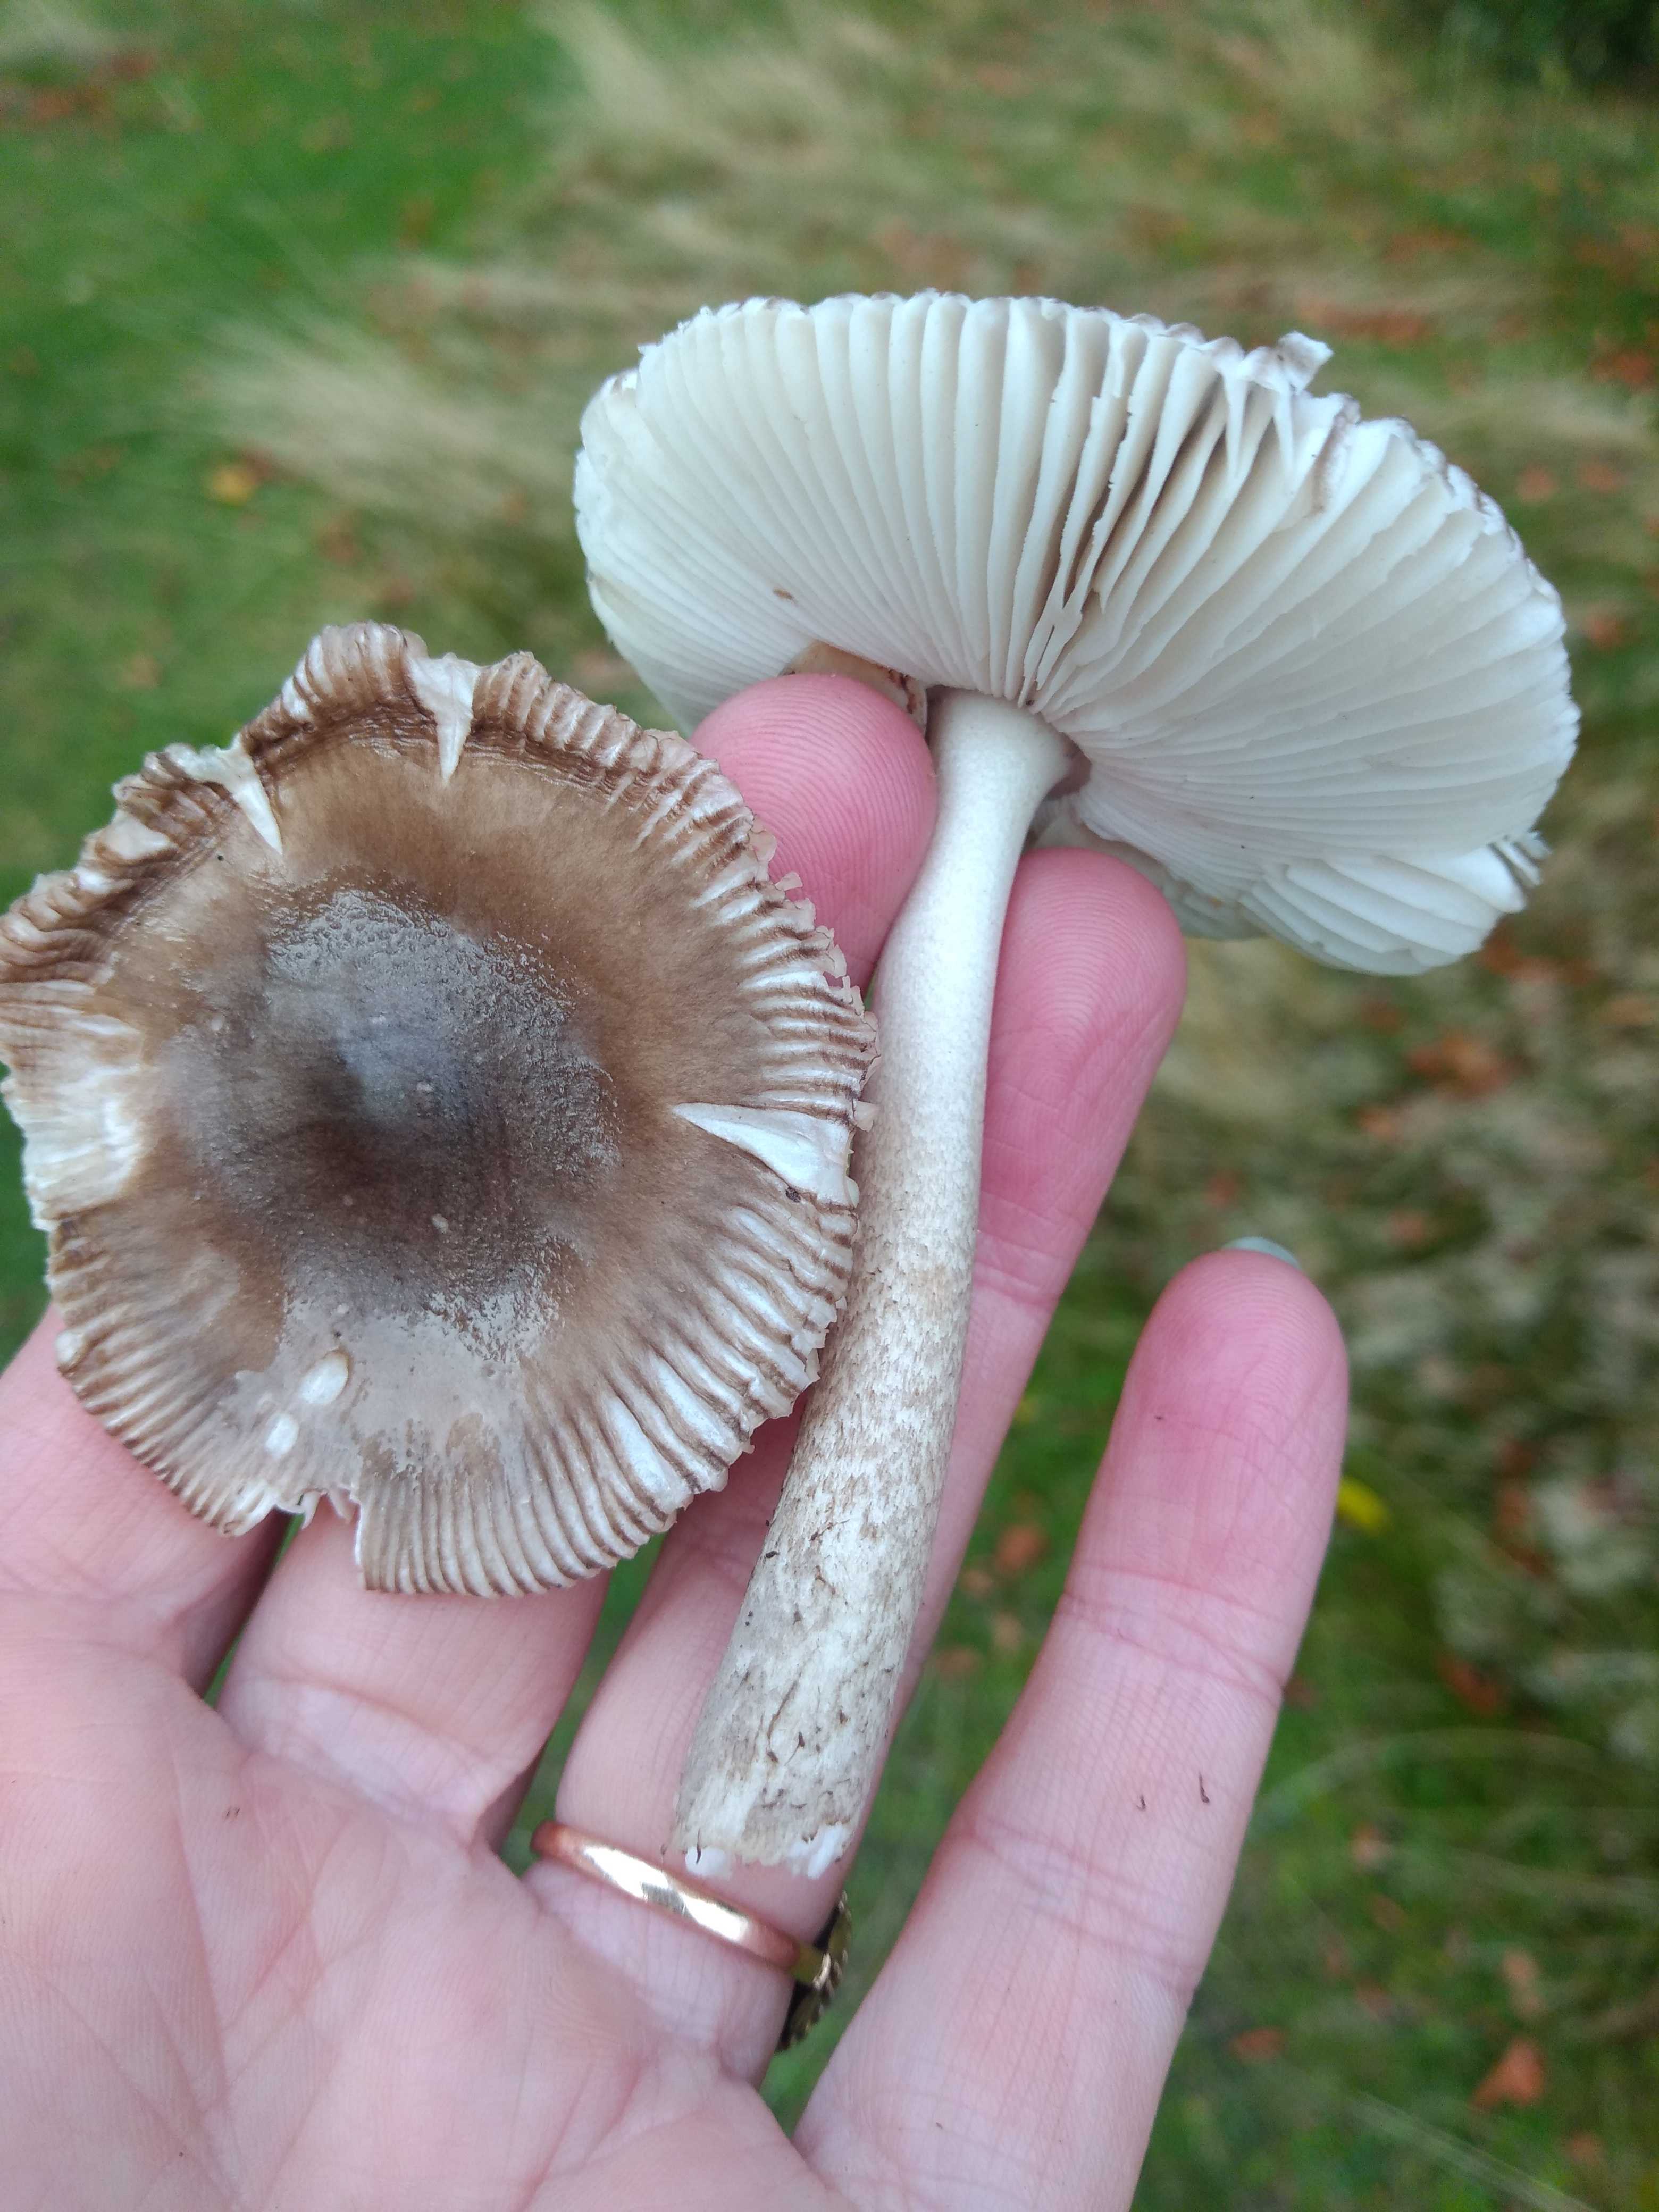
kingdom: Fungi
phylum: Basidiomycota
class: Agaricomycetes
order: Agaricales
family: Amanitaceae
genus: Amanita
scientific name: Amanita vaginata
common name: grå kam-fluesvamp
